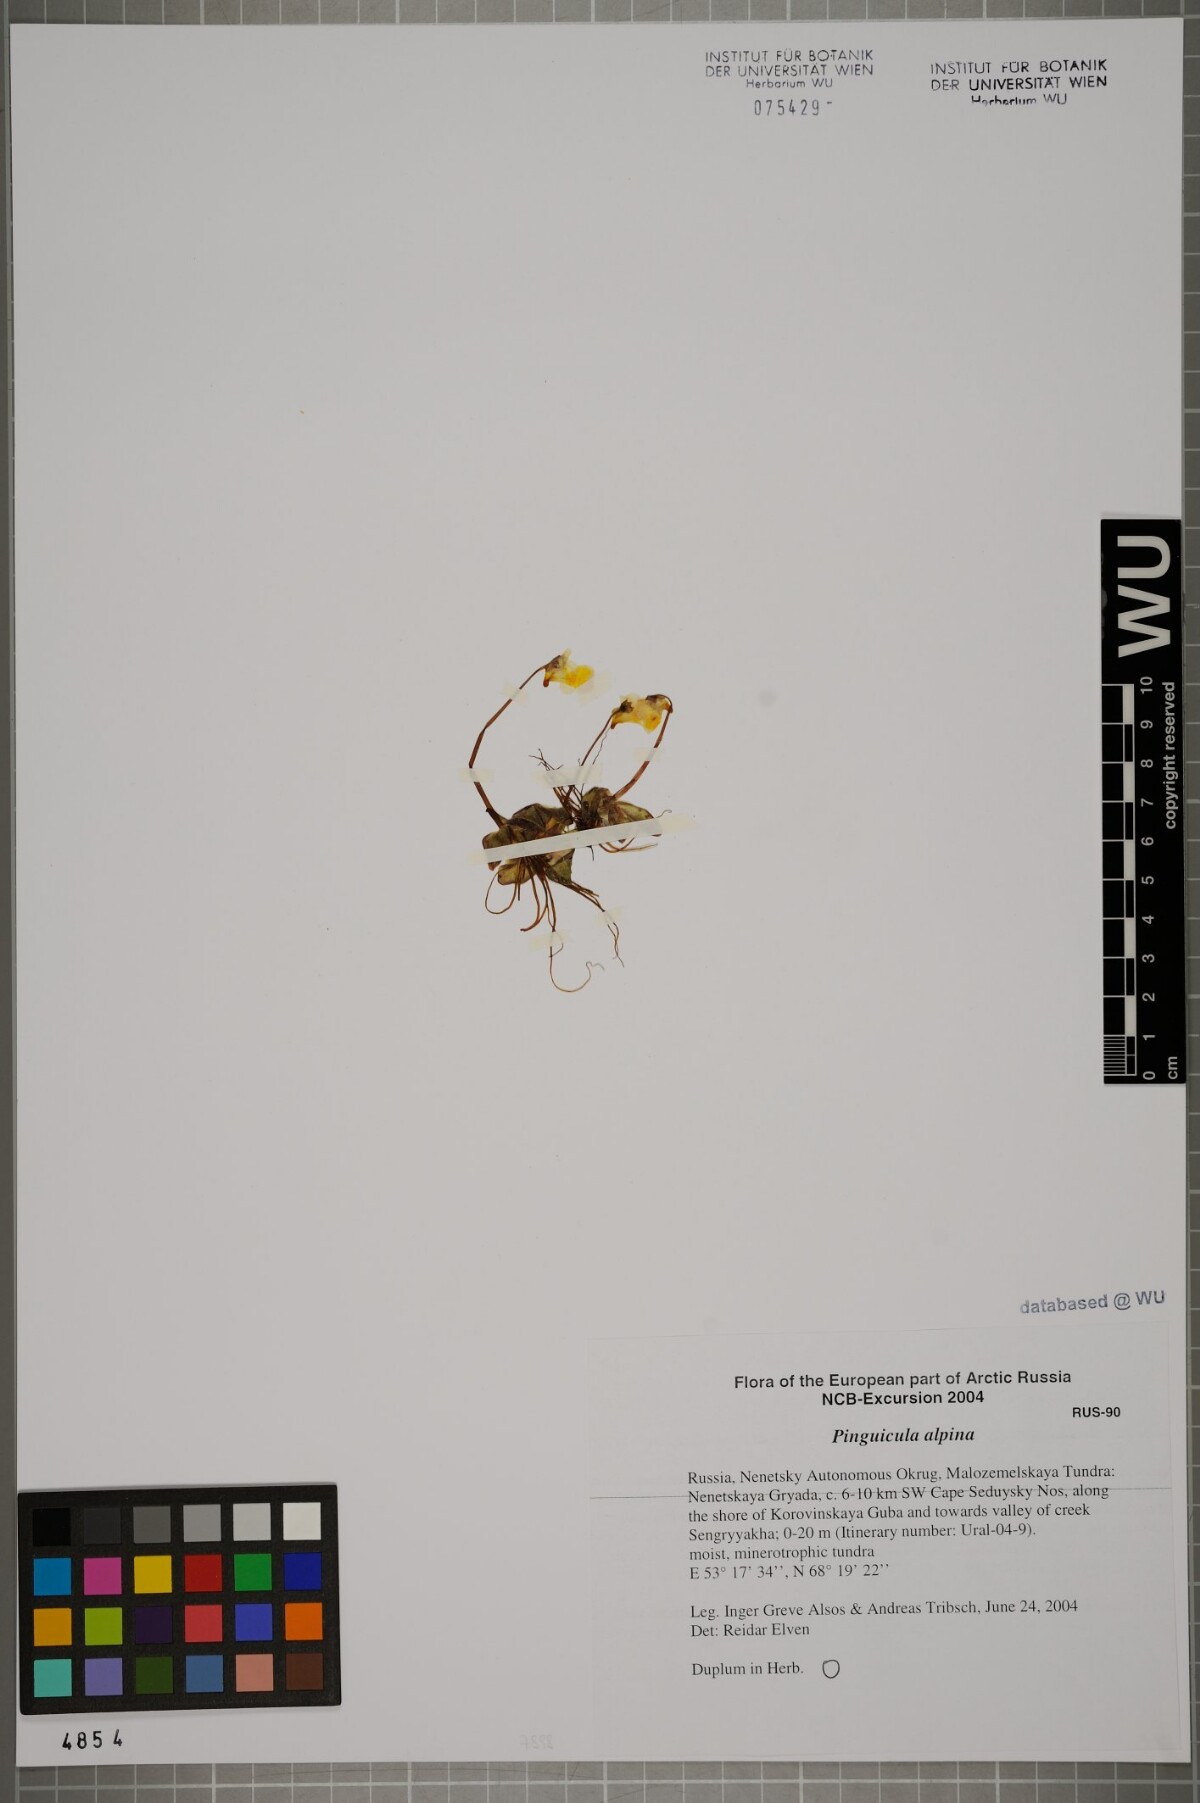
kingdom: Plantae
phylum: Tracheophyta
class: Magnoliopsida
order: Lamiales
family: Lentibulariaceae
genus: Pinguicula
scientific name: Pinguicula alpina
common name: Alpine butterwort
